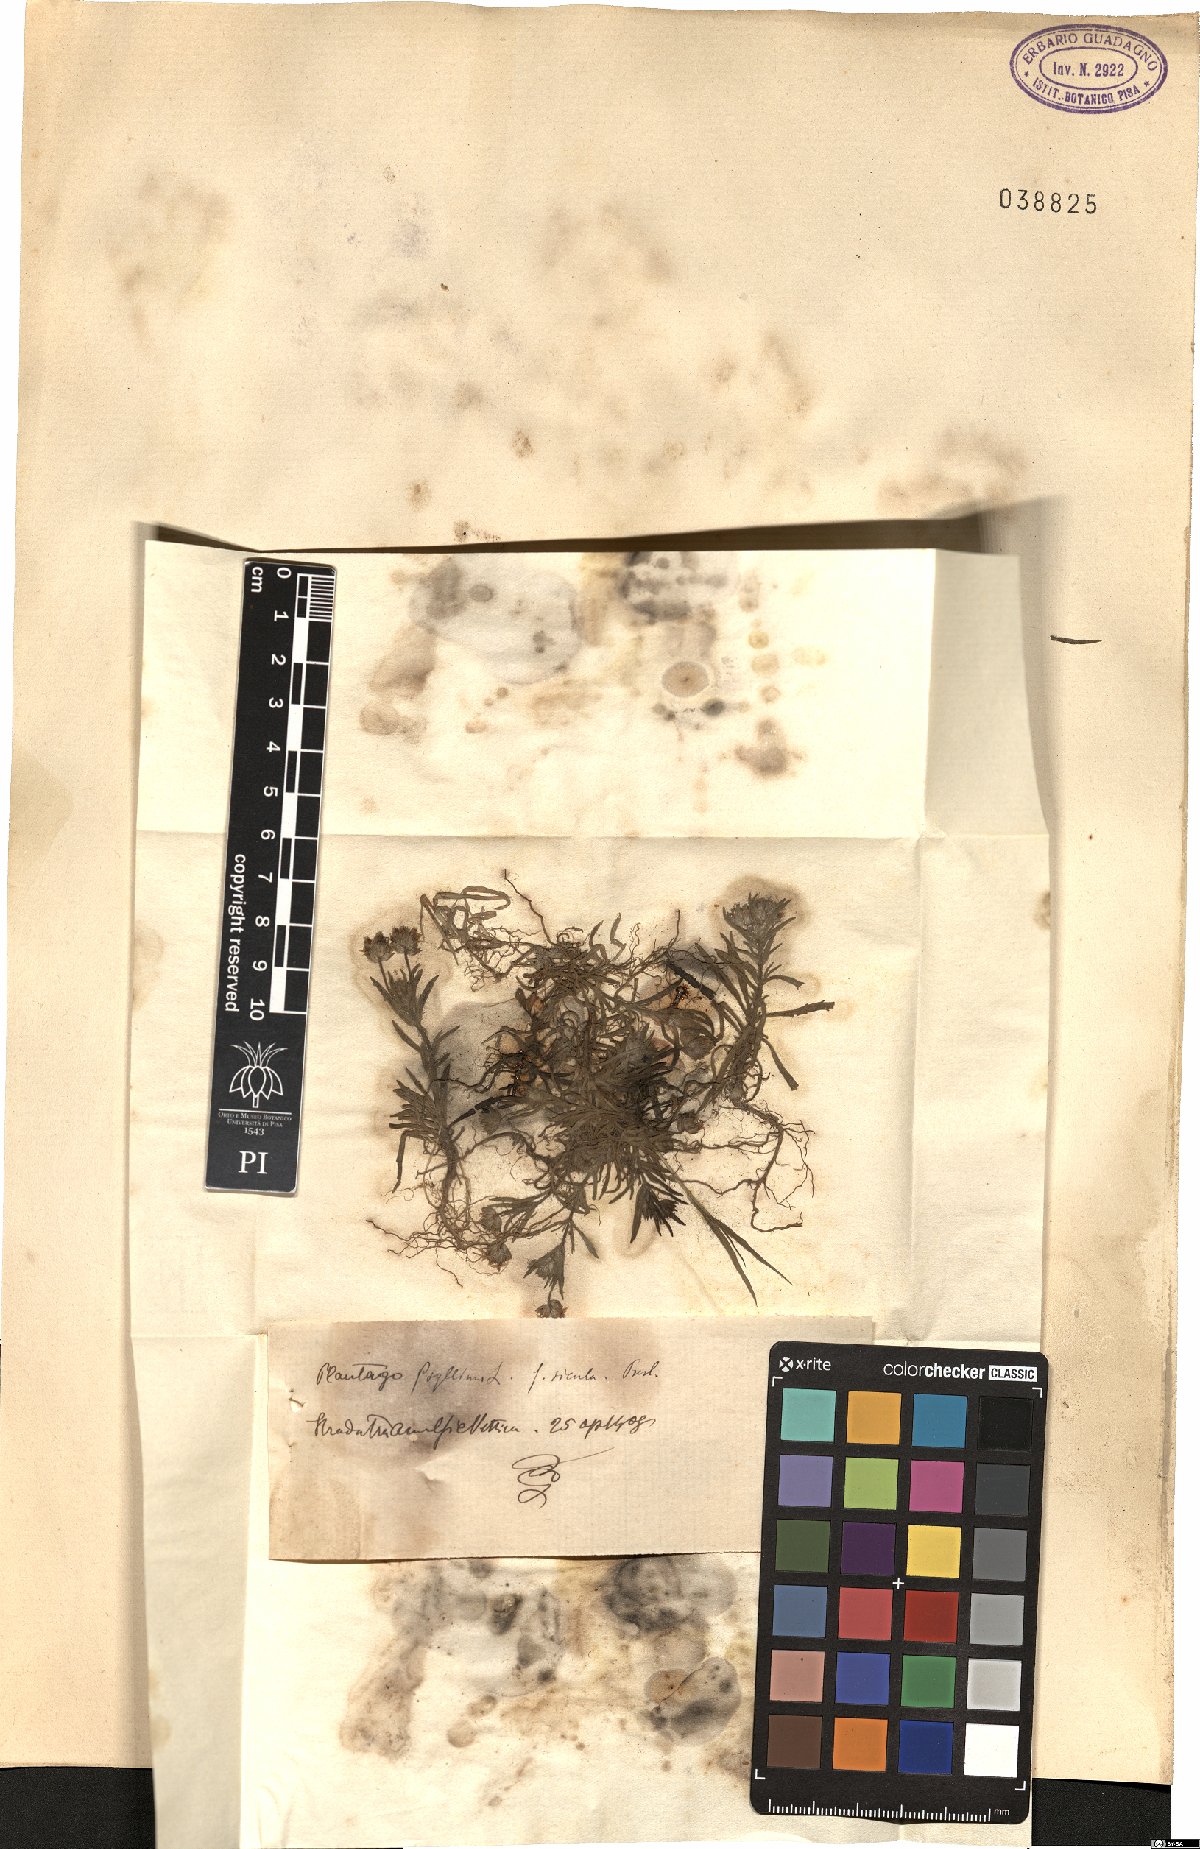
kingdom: Plantae
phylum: Tracheophyta
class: Magnoliopsida
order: Lamiales
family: Plantaginaceae
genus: Plantago
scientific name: Plantago
